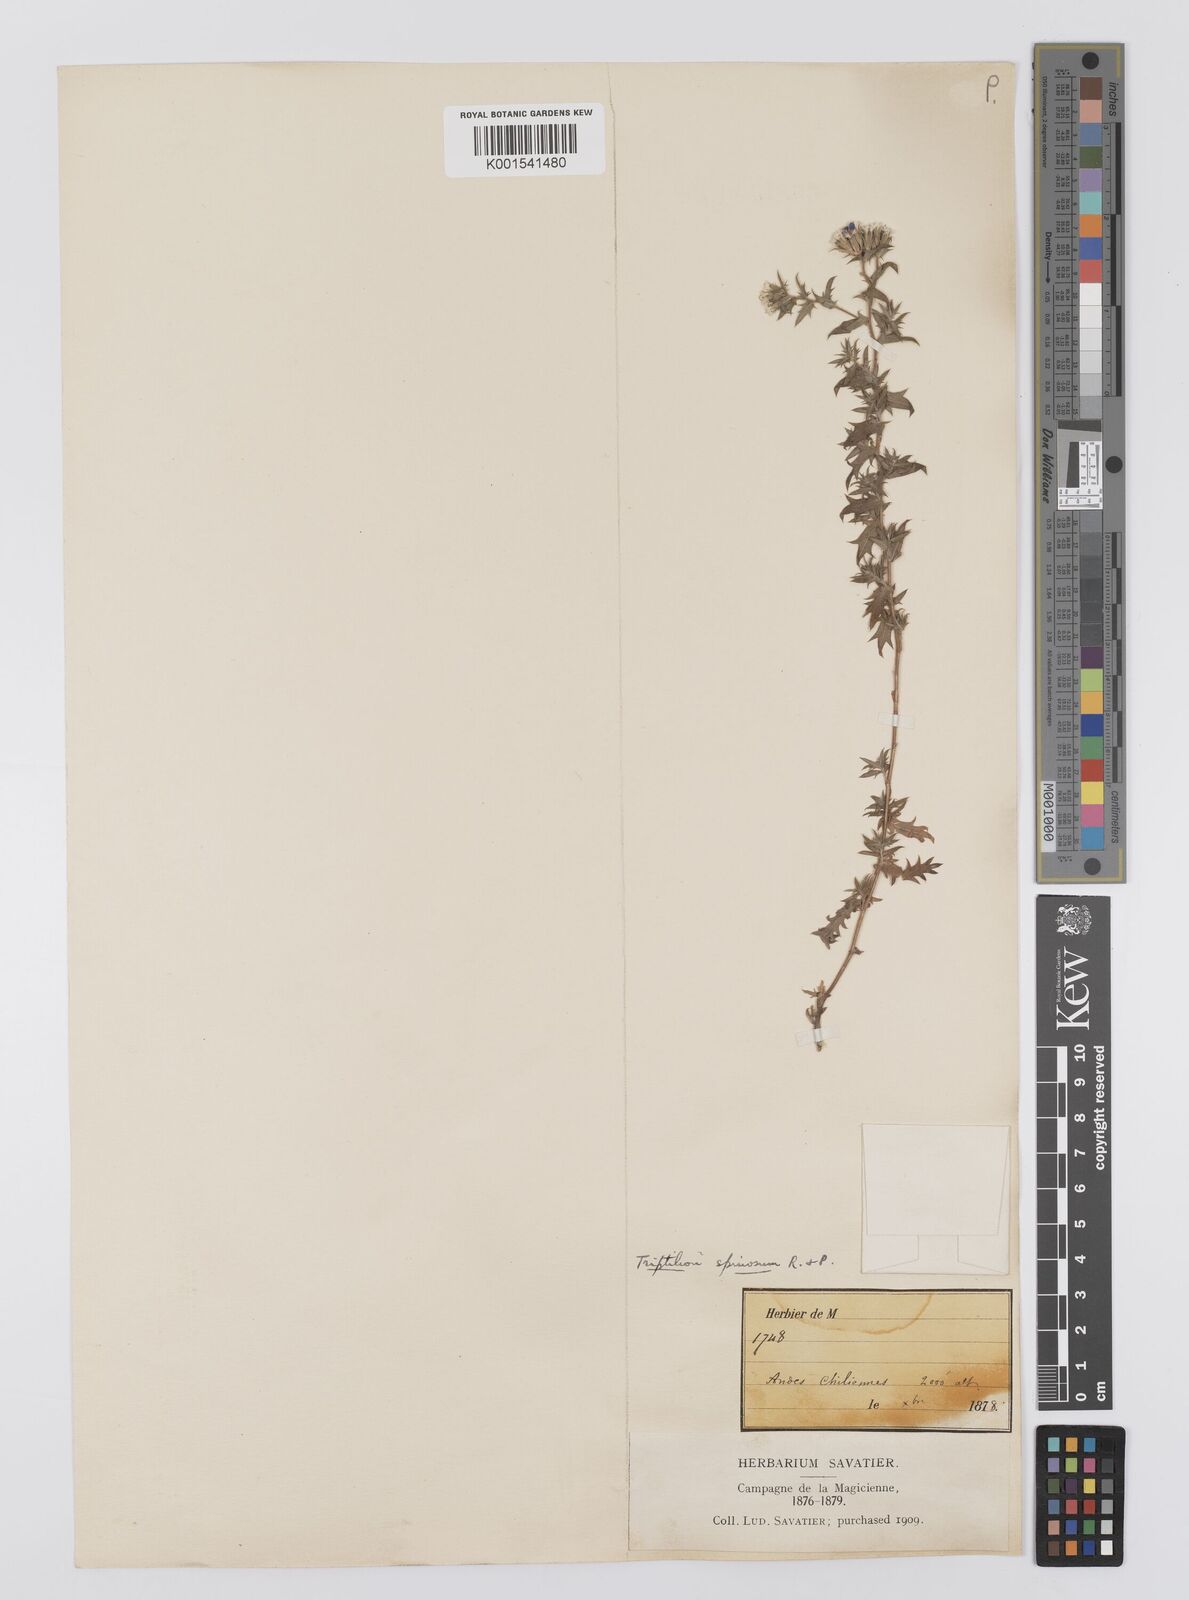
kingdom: Plantae
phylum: Tracheophyta
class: Magnoliopsida
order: Asterales
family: Asteraceae
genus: Triptilion
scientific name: Triptilion spinosum
